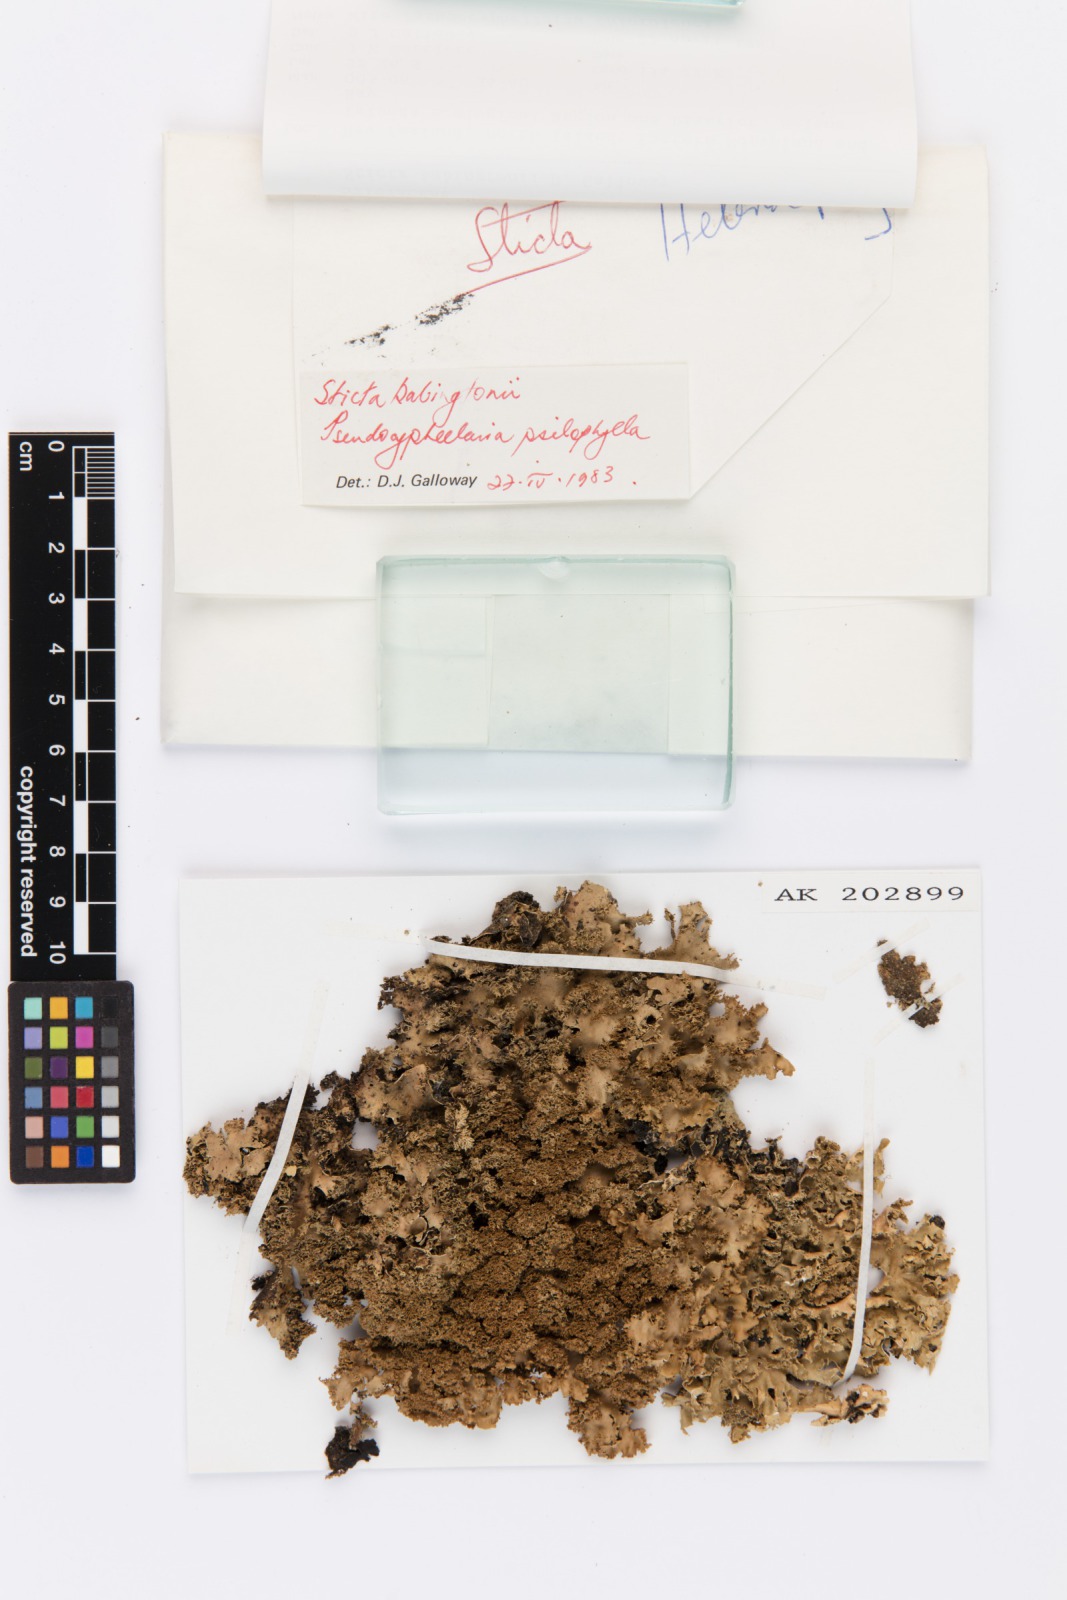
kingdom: Fungi
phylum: Ascomycota
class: Lecanoromycetes
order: Peltigerales
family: Lobariaceae
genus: Sticta
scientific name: Sticta babingtonii
